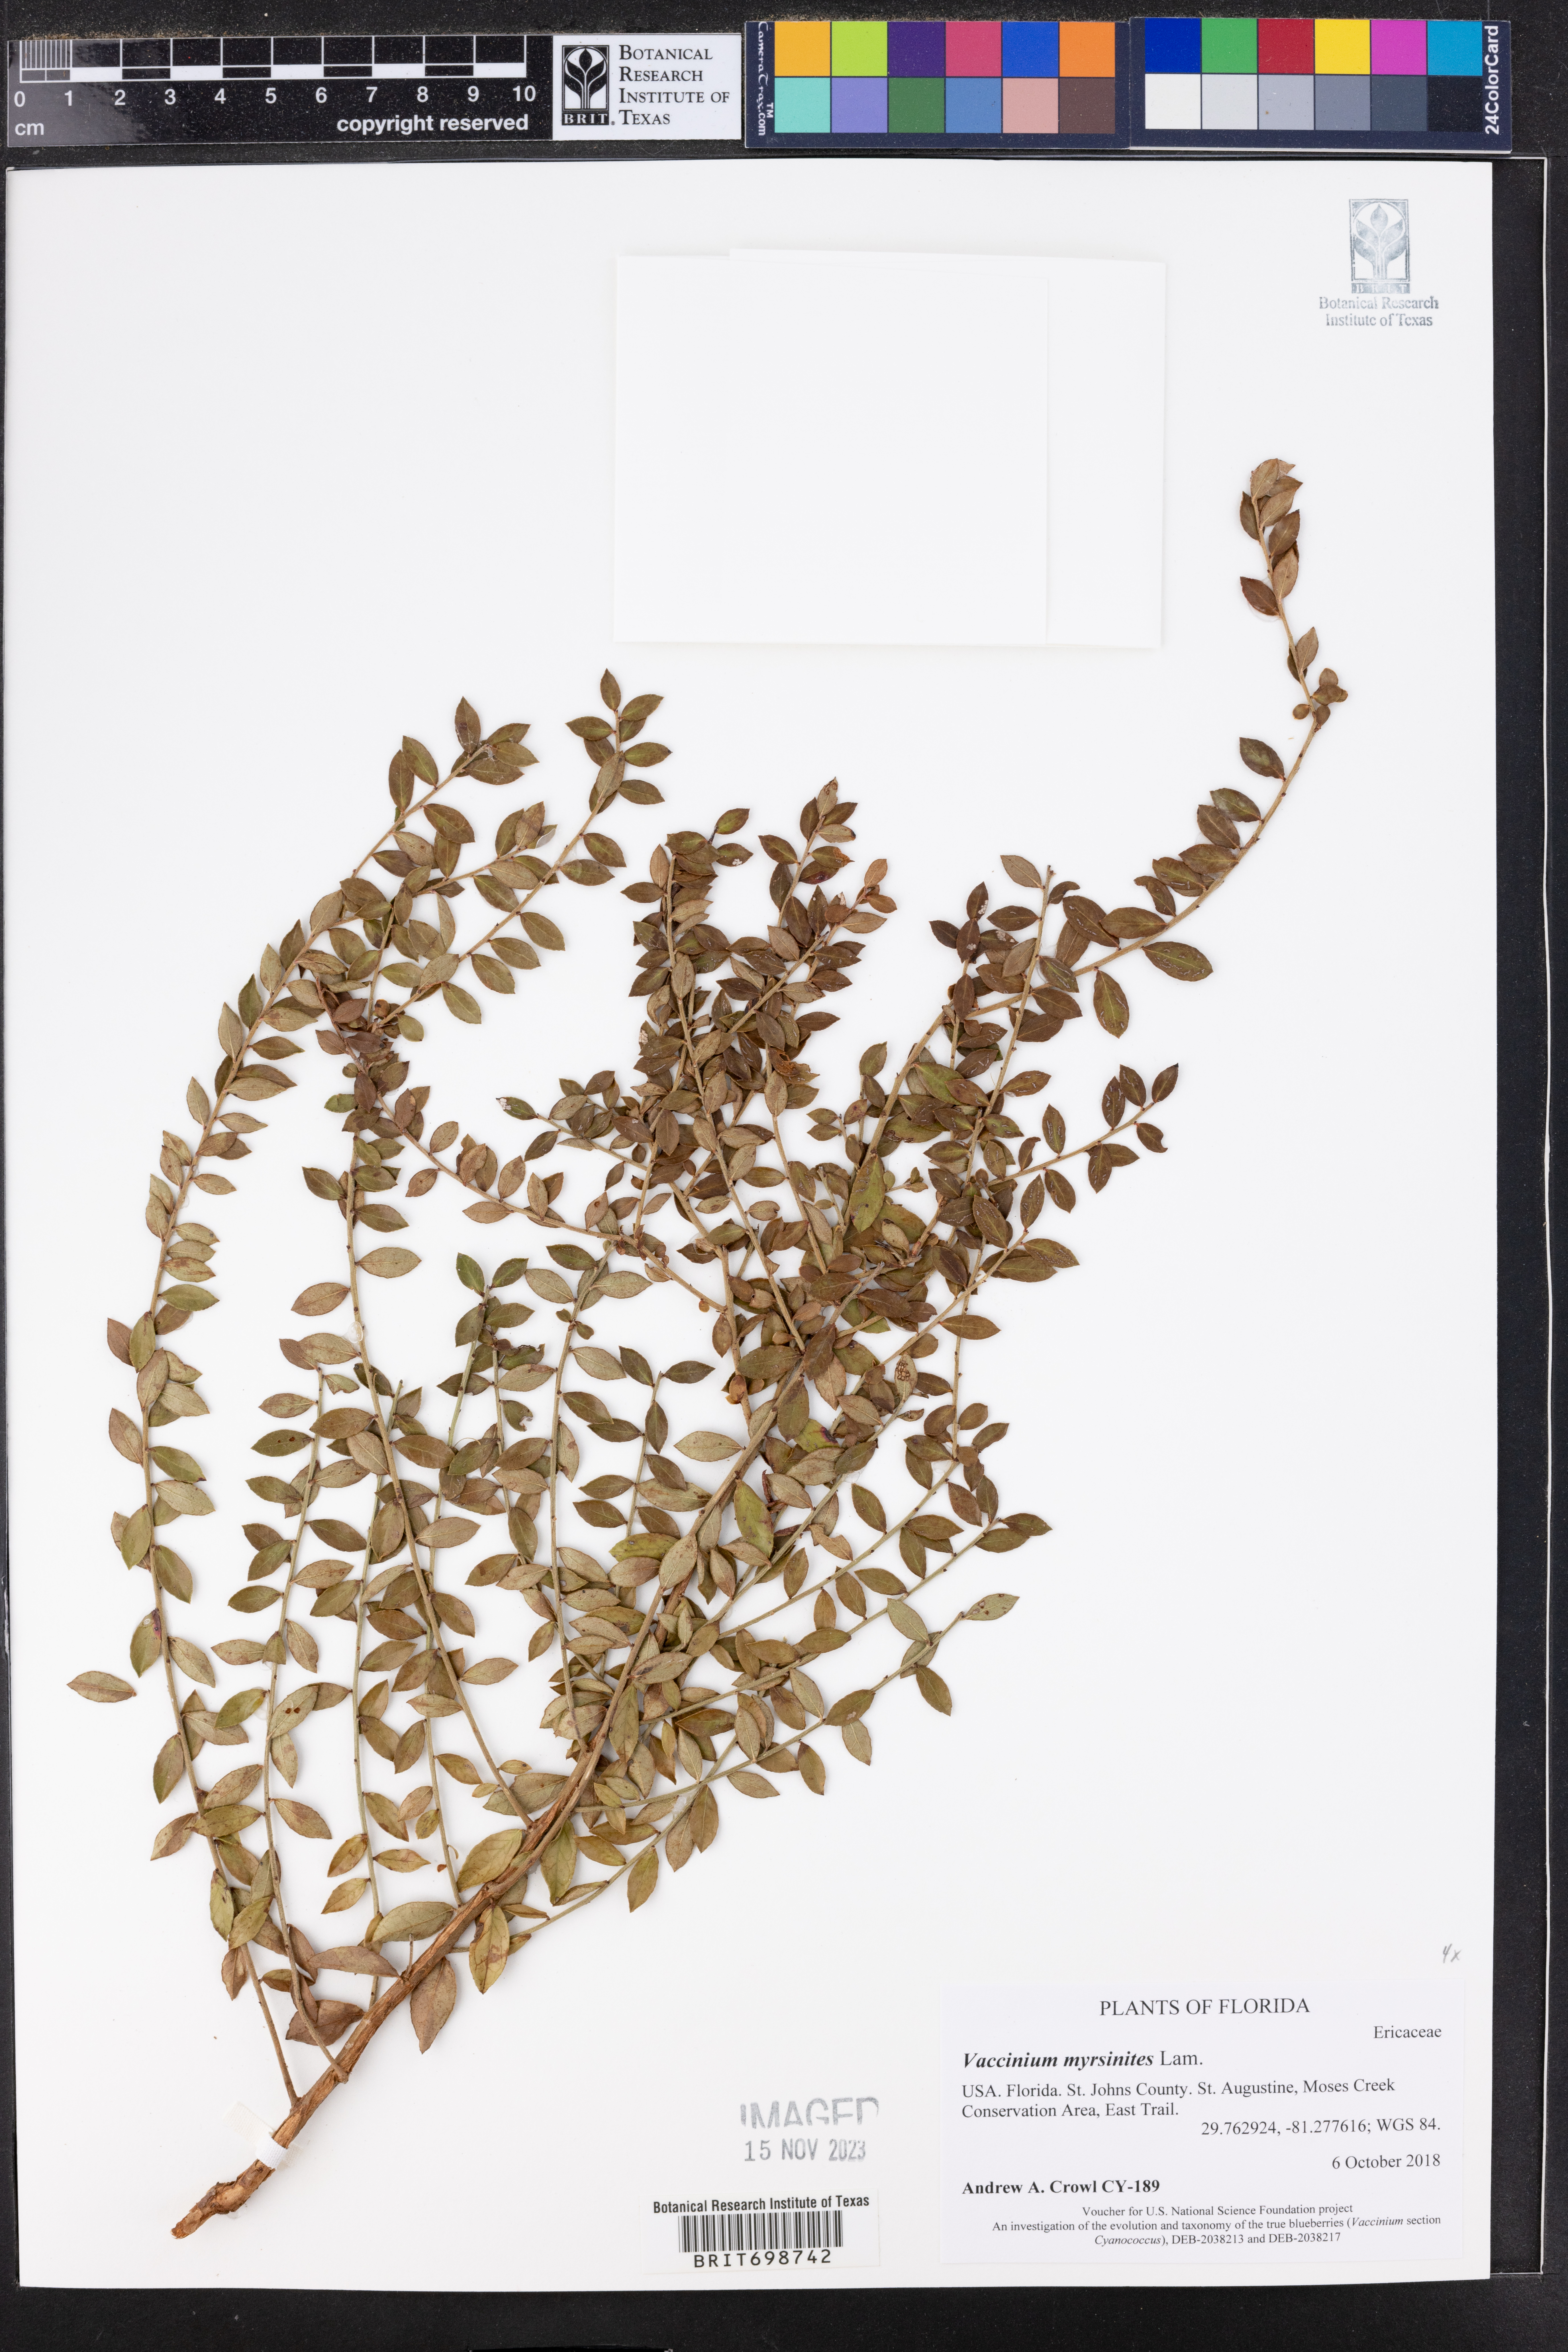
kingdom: Plantae
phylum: Tracheophyta
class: Magnoliopsida
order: Ericales
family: Ericaceae
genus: Vaccinium
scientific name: Vaccinium myrsinites
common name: Evergreen blueberry
